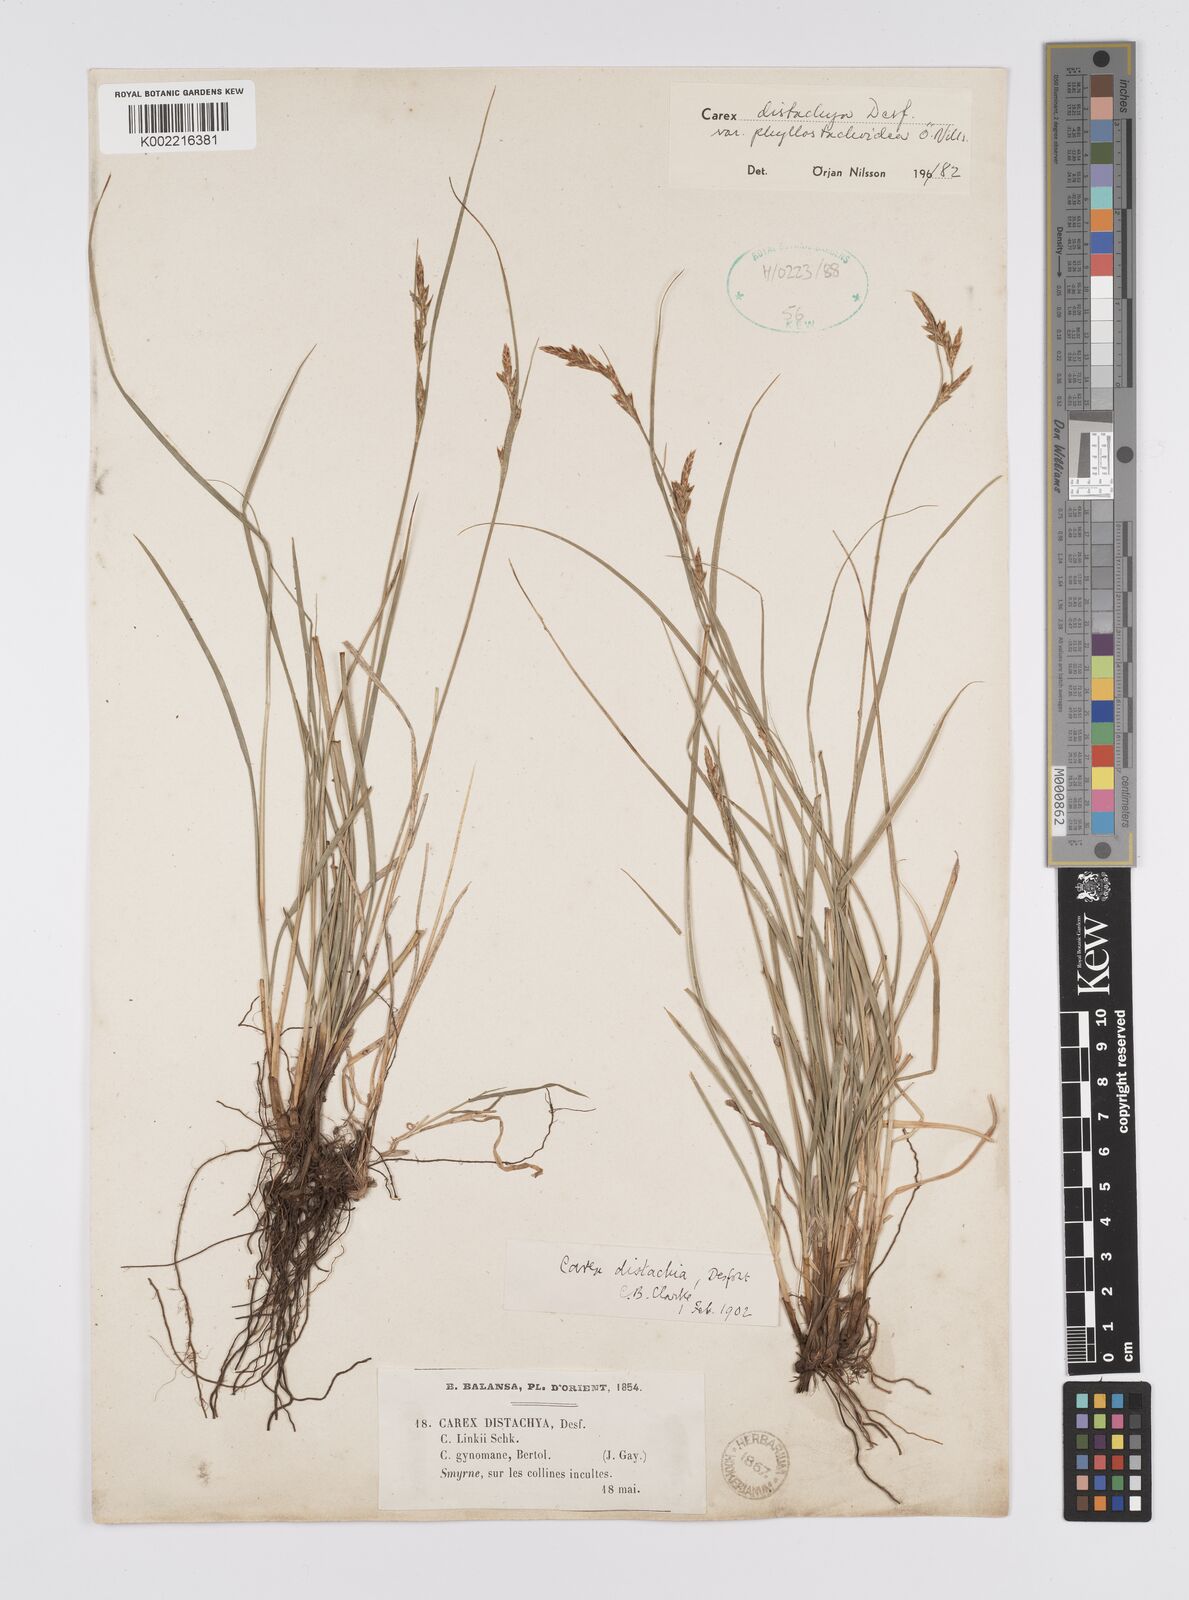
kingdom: Plantae
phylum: Tracheophyta
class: Liliopsida
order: Poales
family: Cyperaceae
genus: Carex
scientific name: Carex distachya
